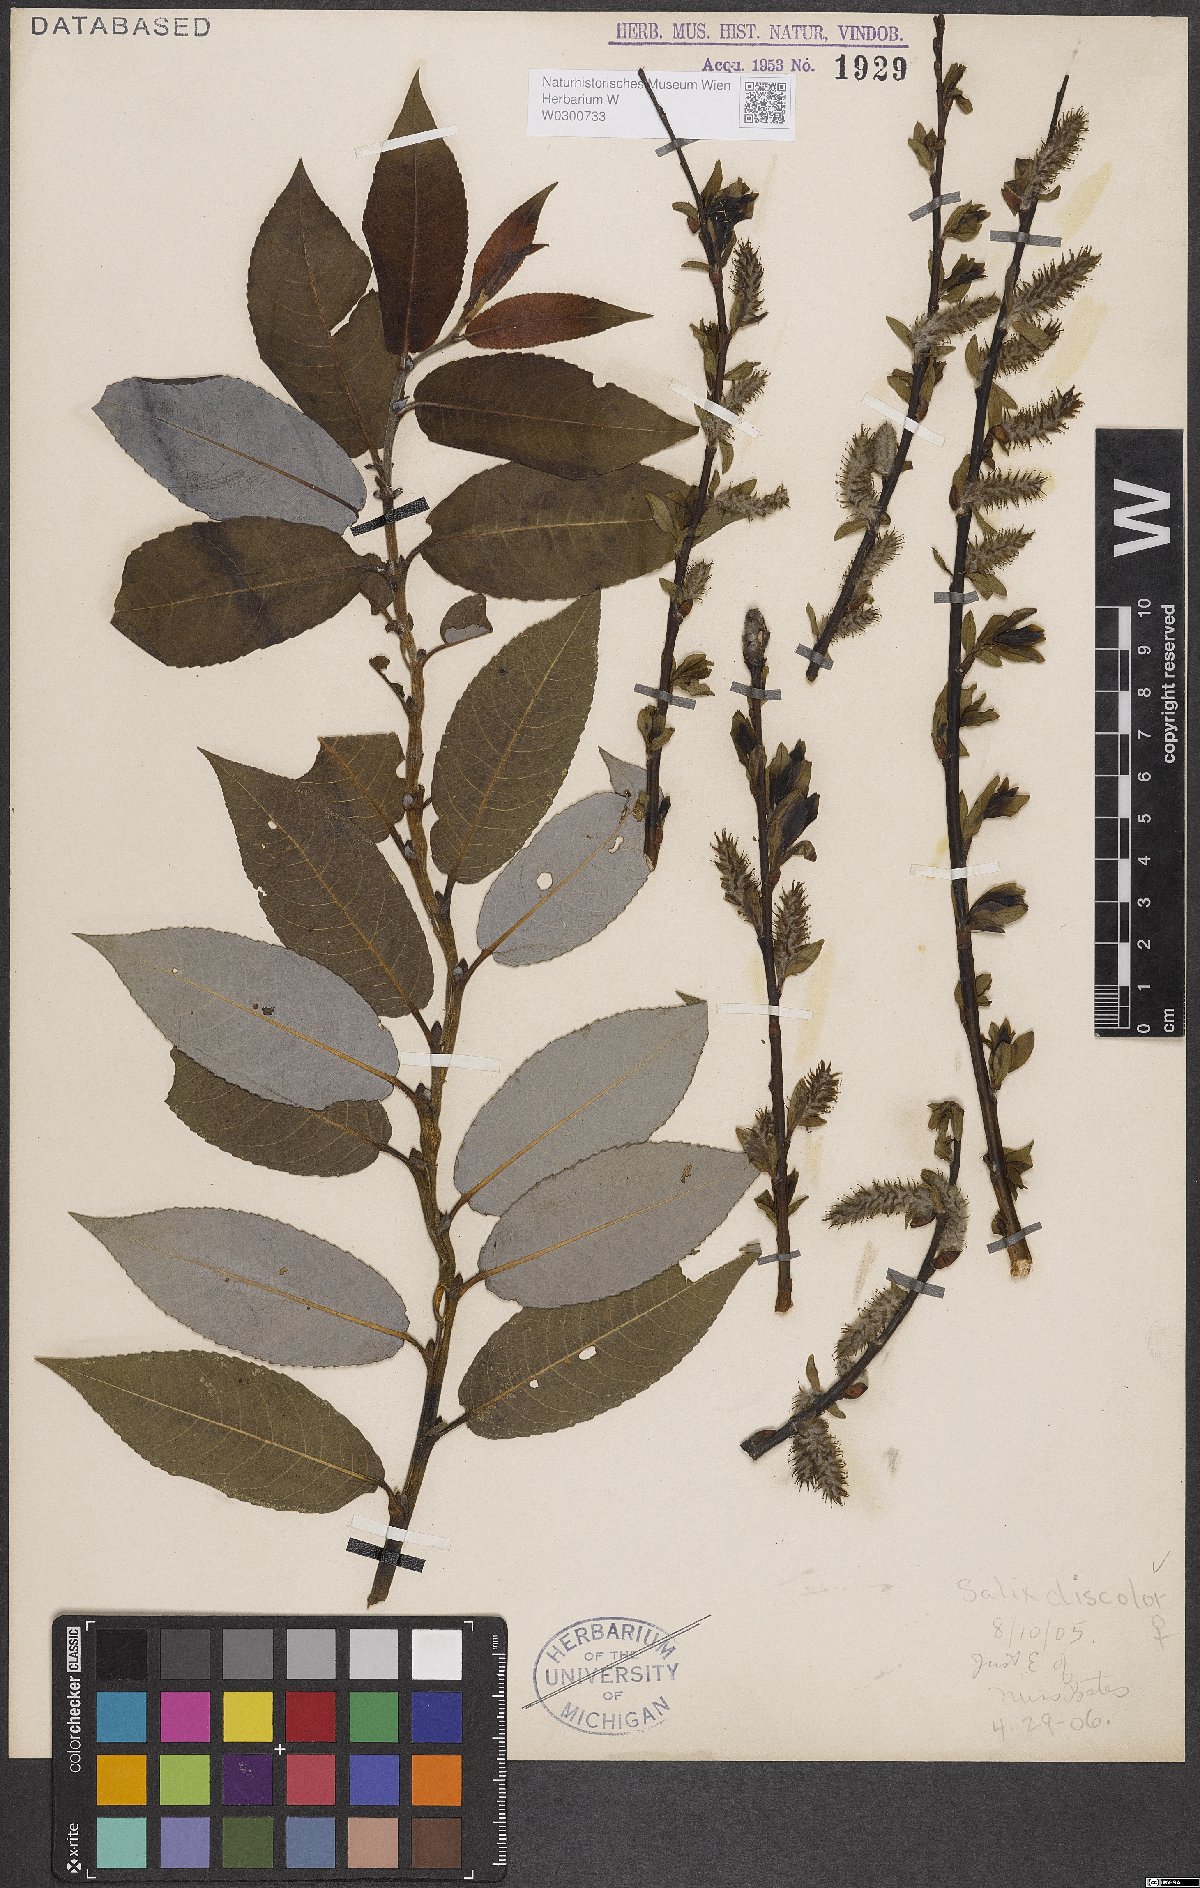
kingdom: Plantae
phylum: Tracheophyta
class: Magnoliopsida
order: Malpighiales
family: Salicaceae
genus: Salix
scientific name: Salix discolor
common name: Glaucous willow
